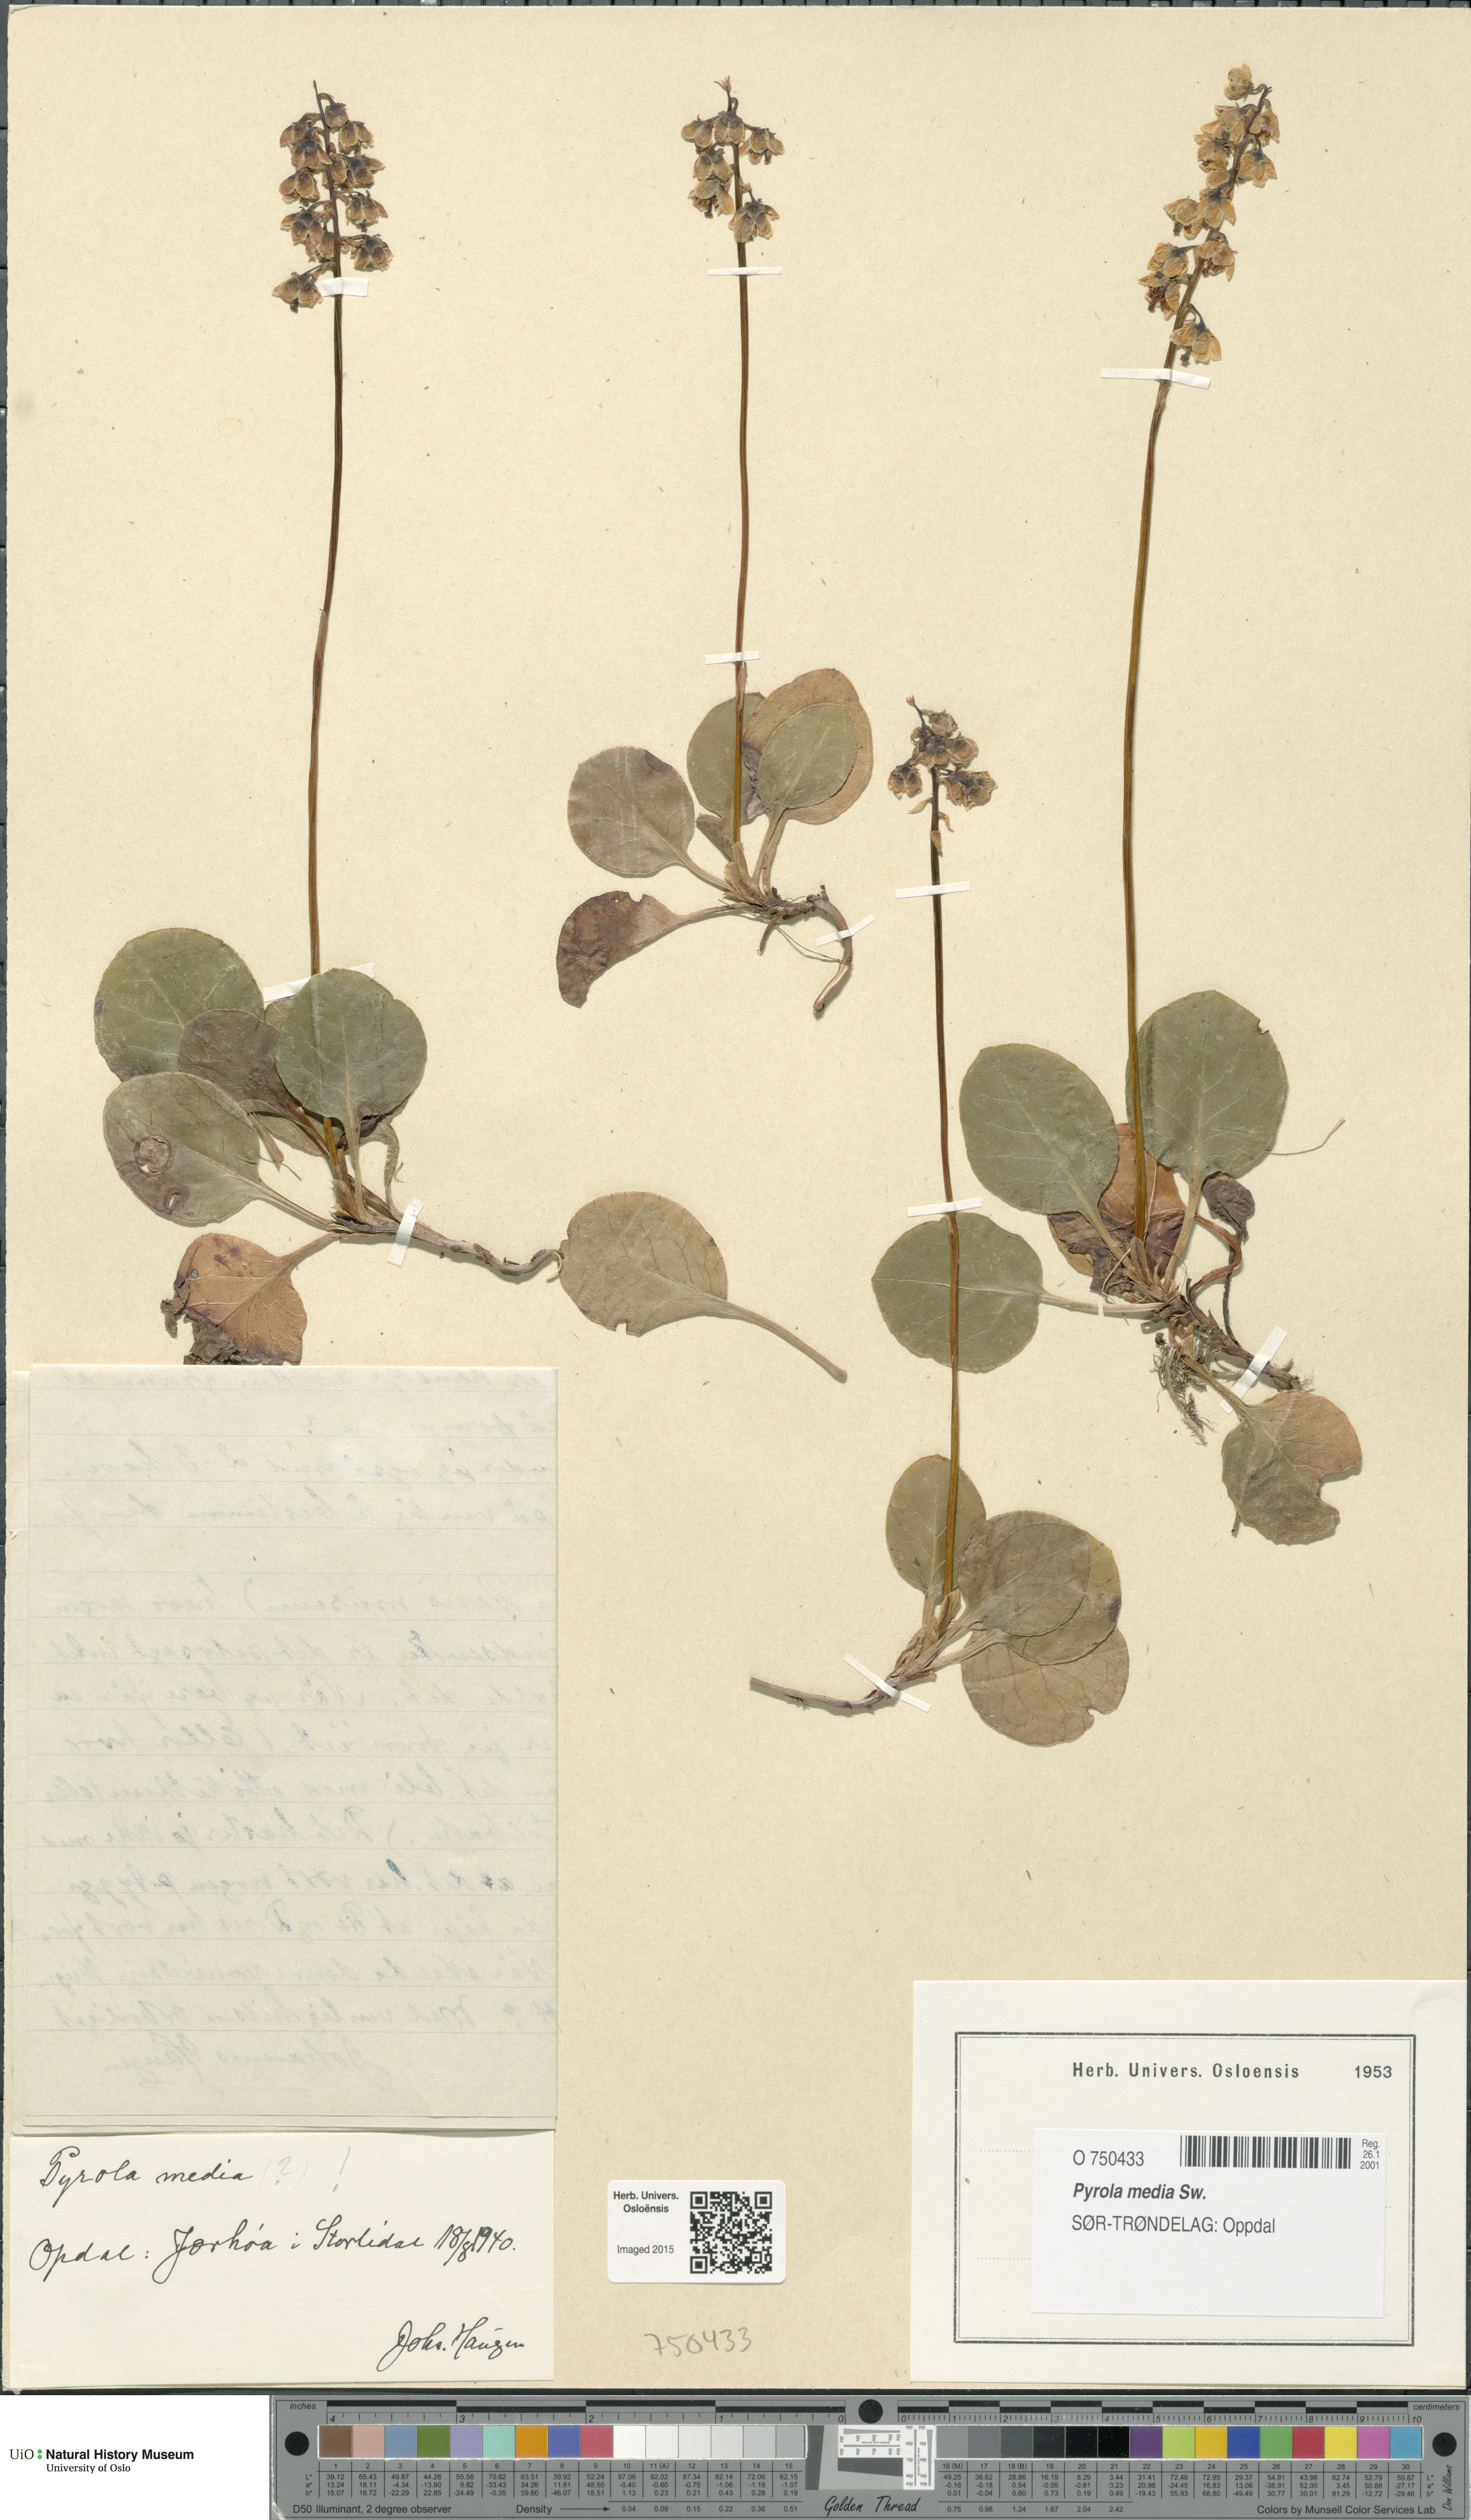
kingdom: Plantae
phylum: Tracheophyta
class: Magnoliopsida
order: Ericales
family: Ericaceae
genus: Pyrola
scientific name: Pyrola media
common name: Intermediate wintergreen
